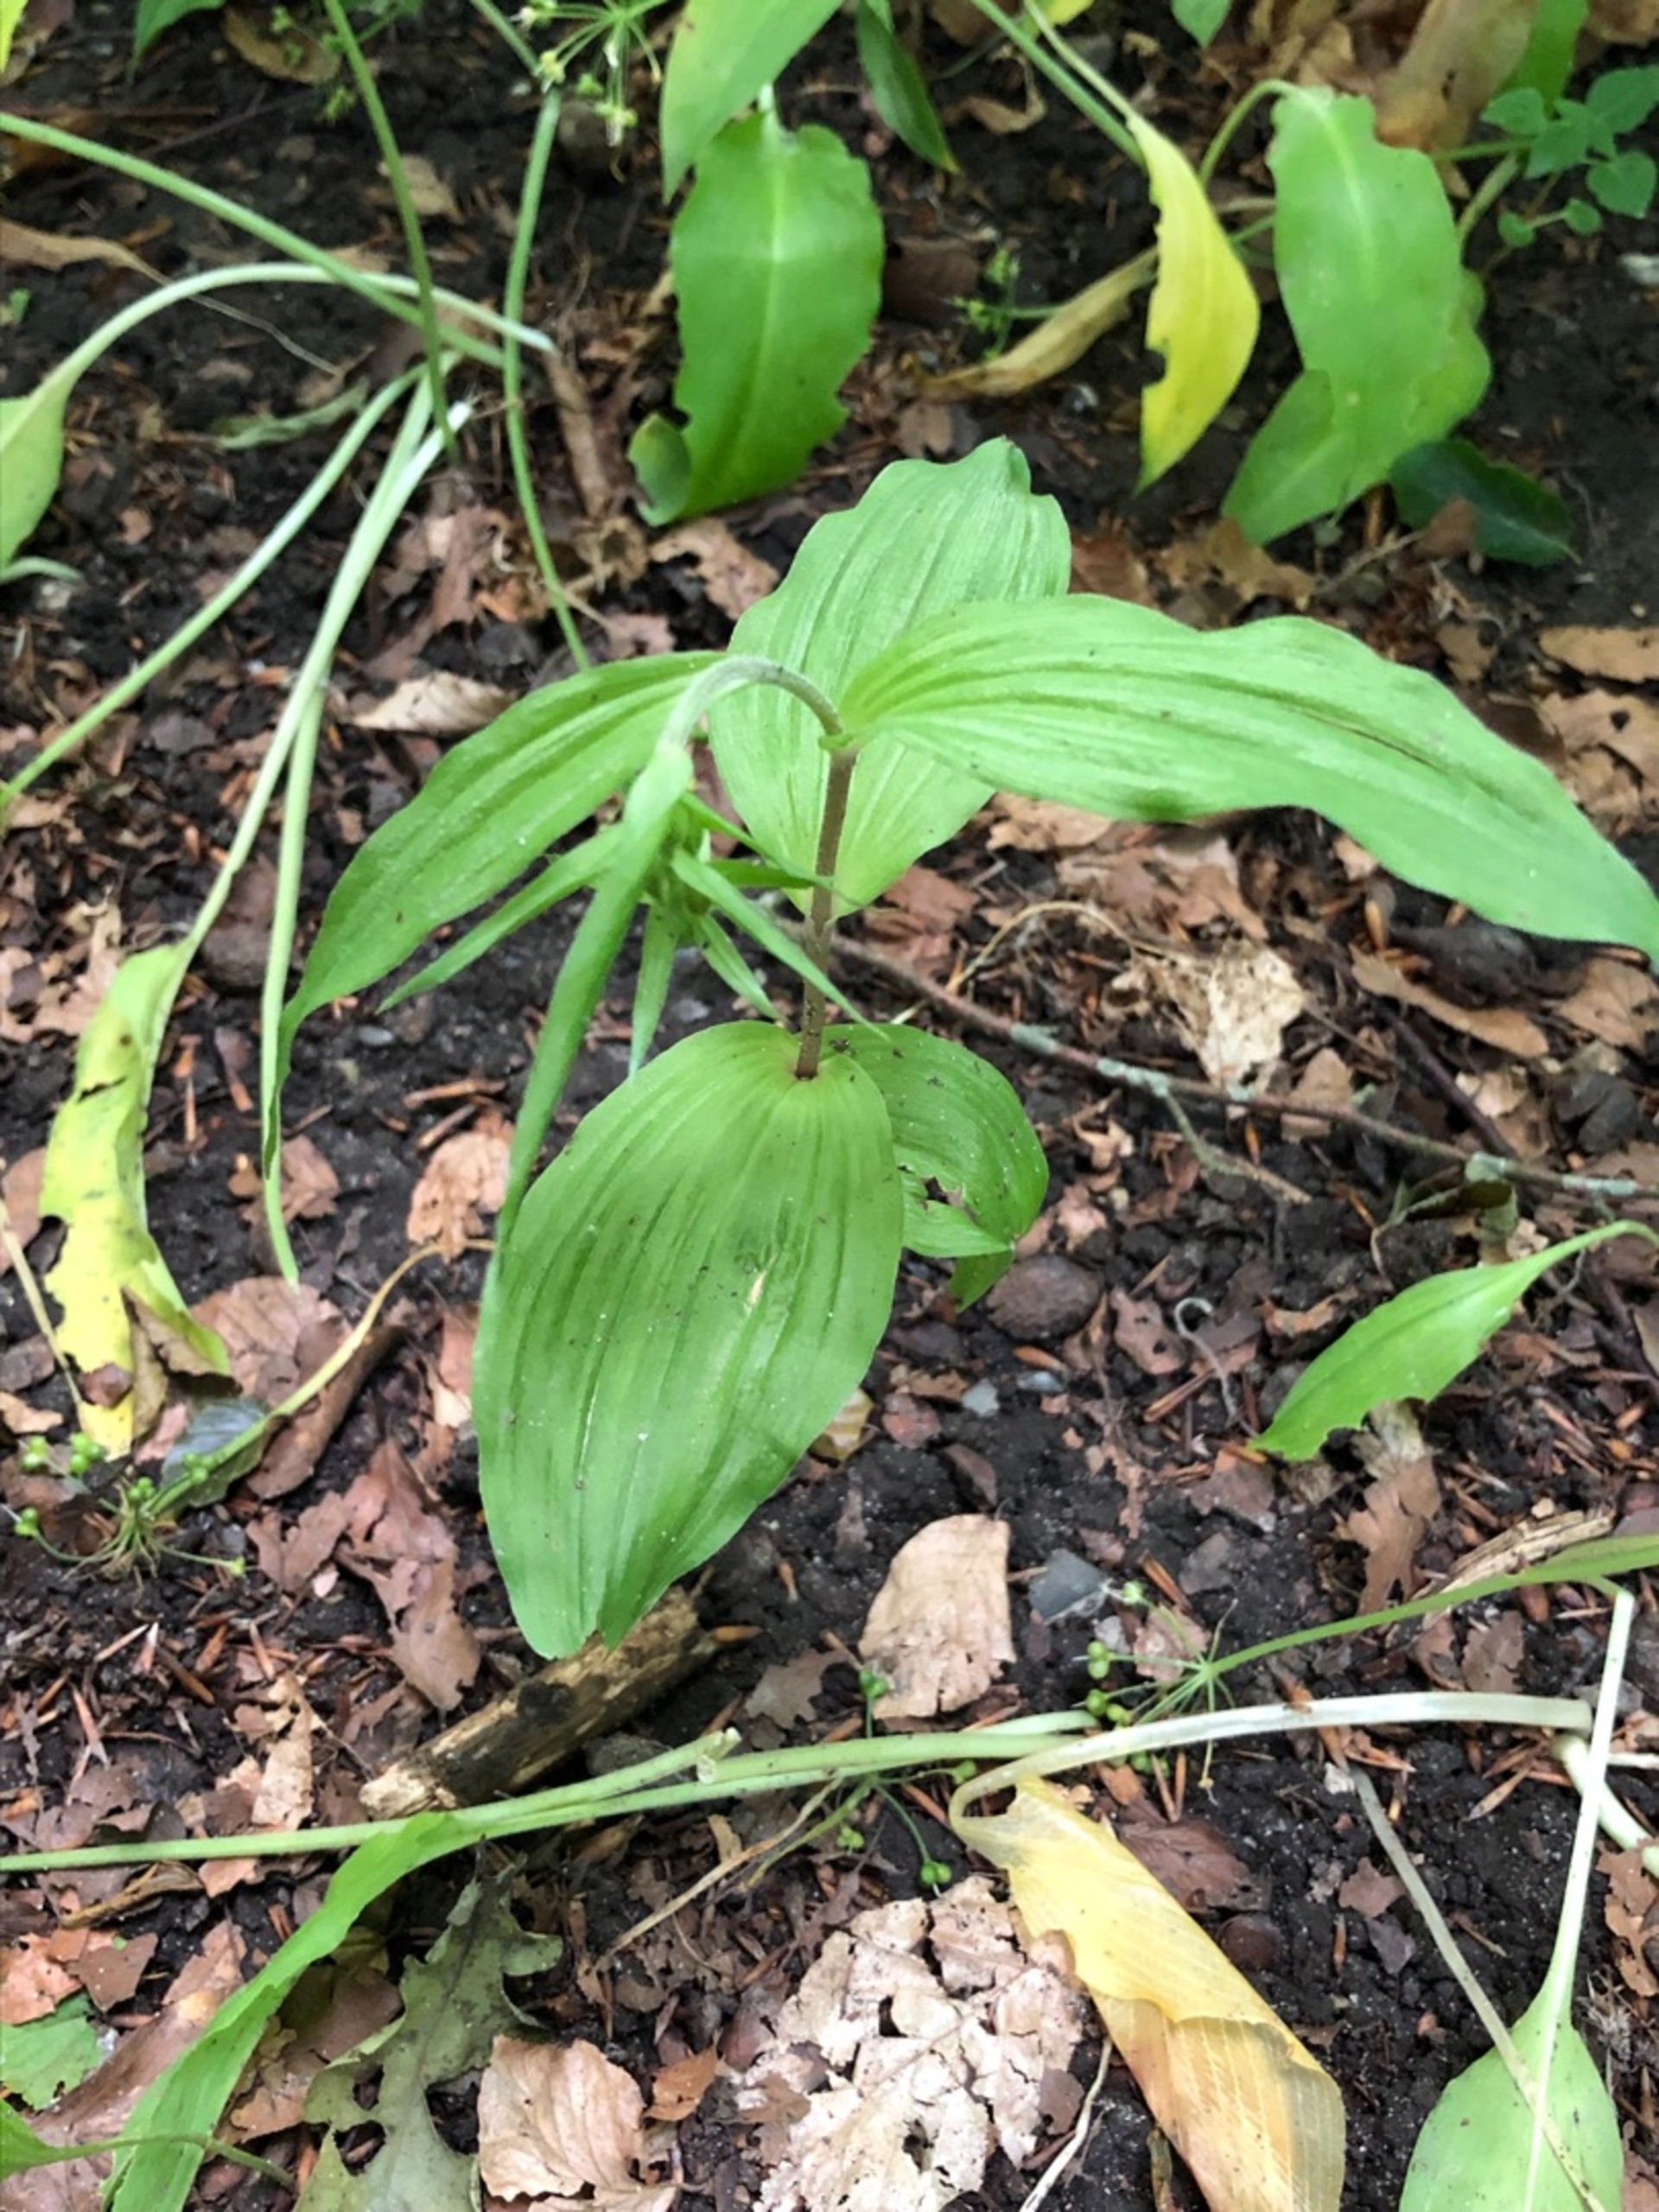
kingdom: Plantae
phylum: Tracheophyta
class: Liliopsida
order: Asparagales
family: Orchidaceae
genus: Epipactis
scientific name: Epipactis helleborine
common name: Skov-hullæbe
